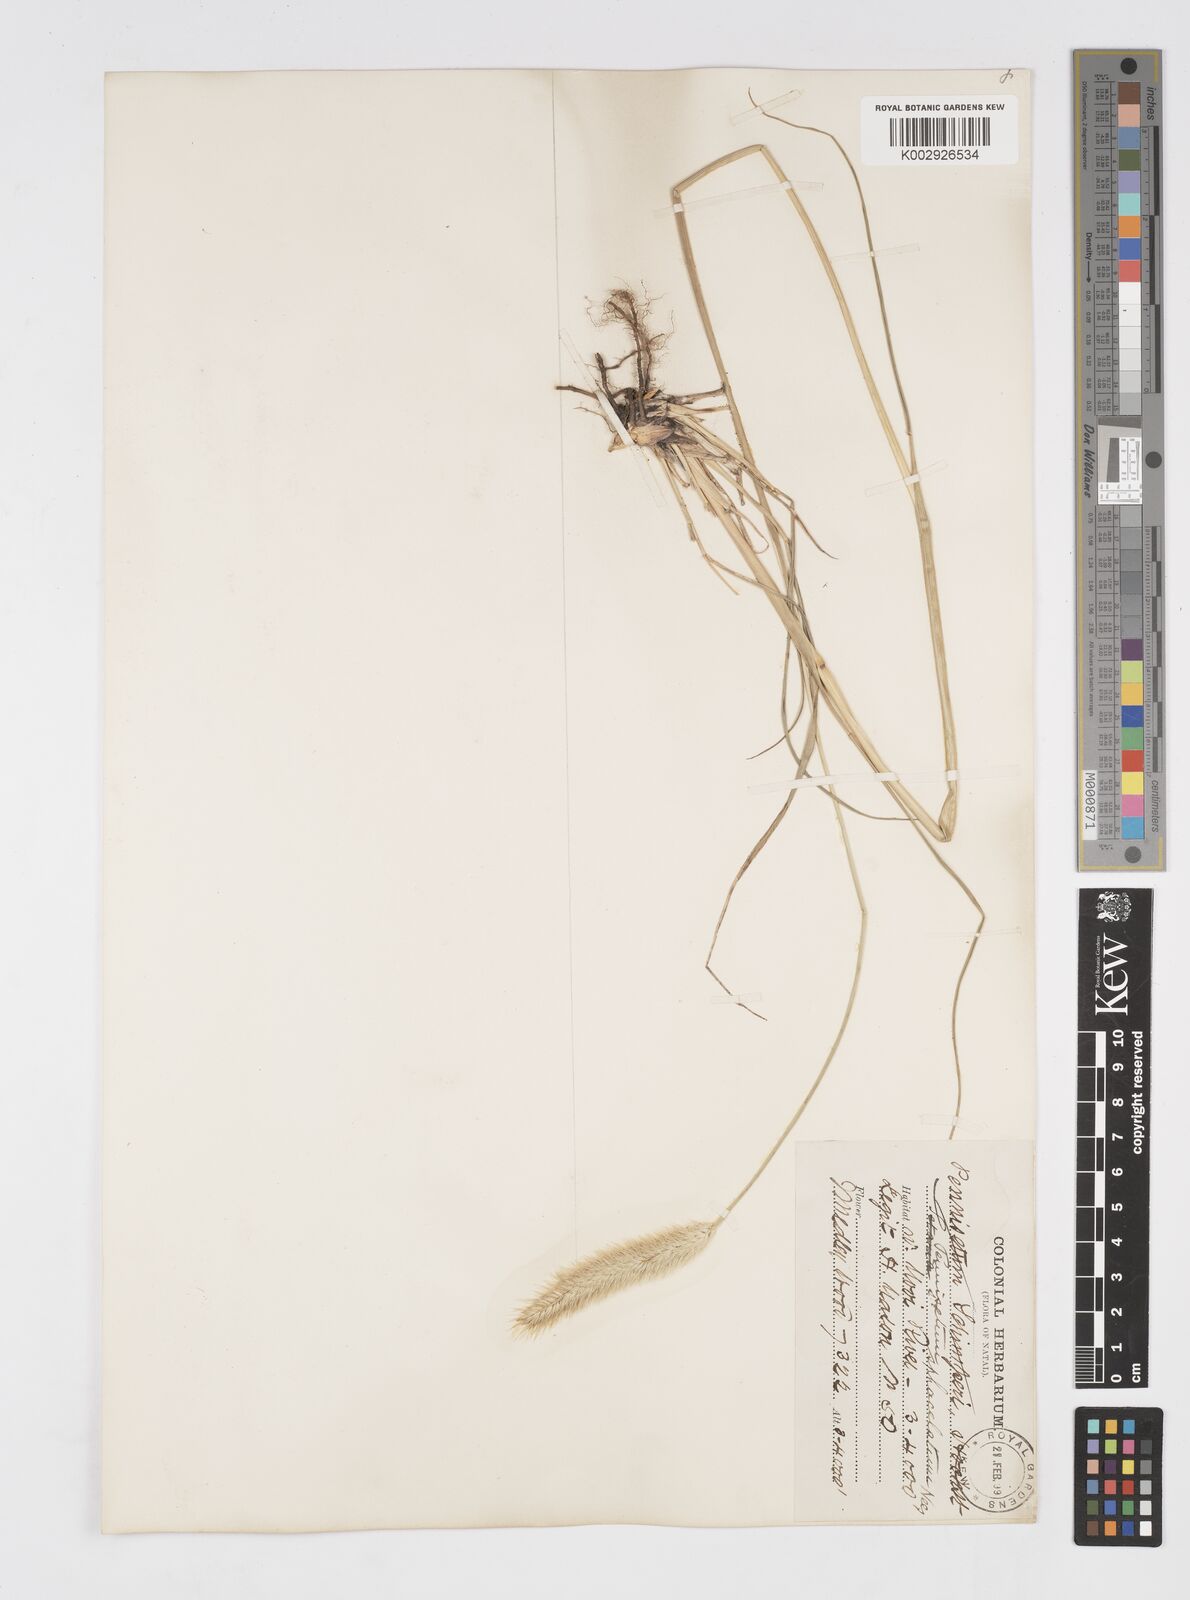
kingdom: Plantae
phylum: Tracheophyta
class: Liliopsida
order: Poales
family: Poaceae
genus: Cenchrus
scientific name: Cenchrus sphacelatus
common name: Bulgras
